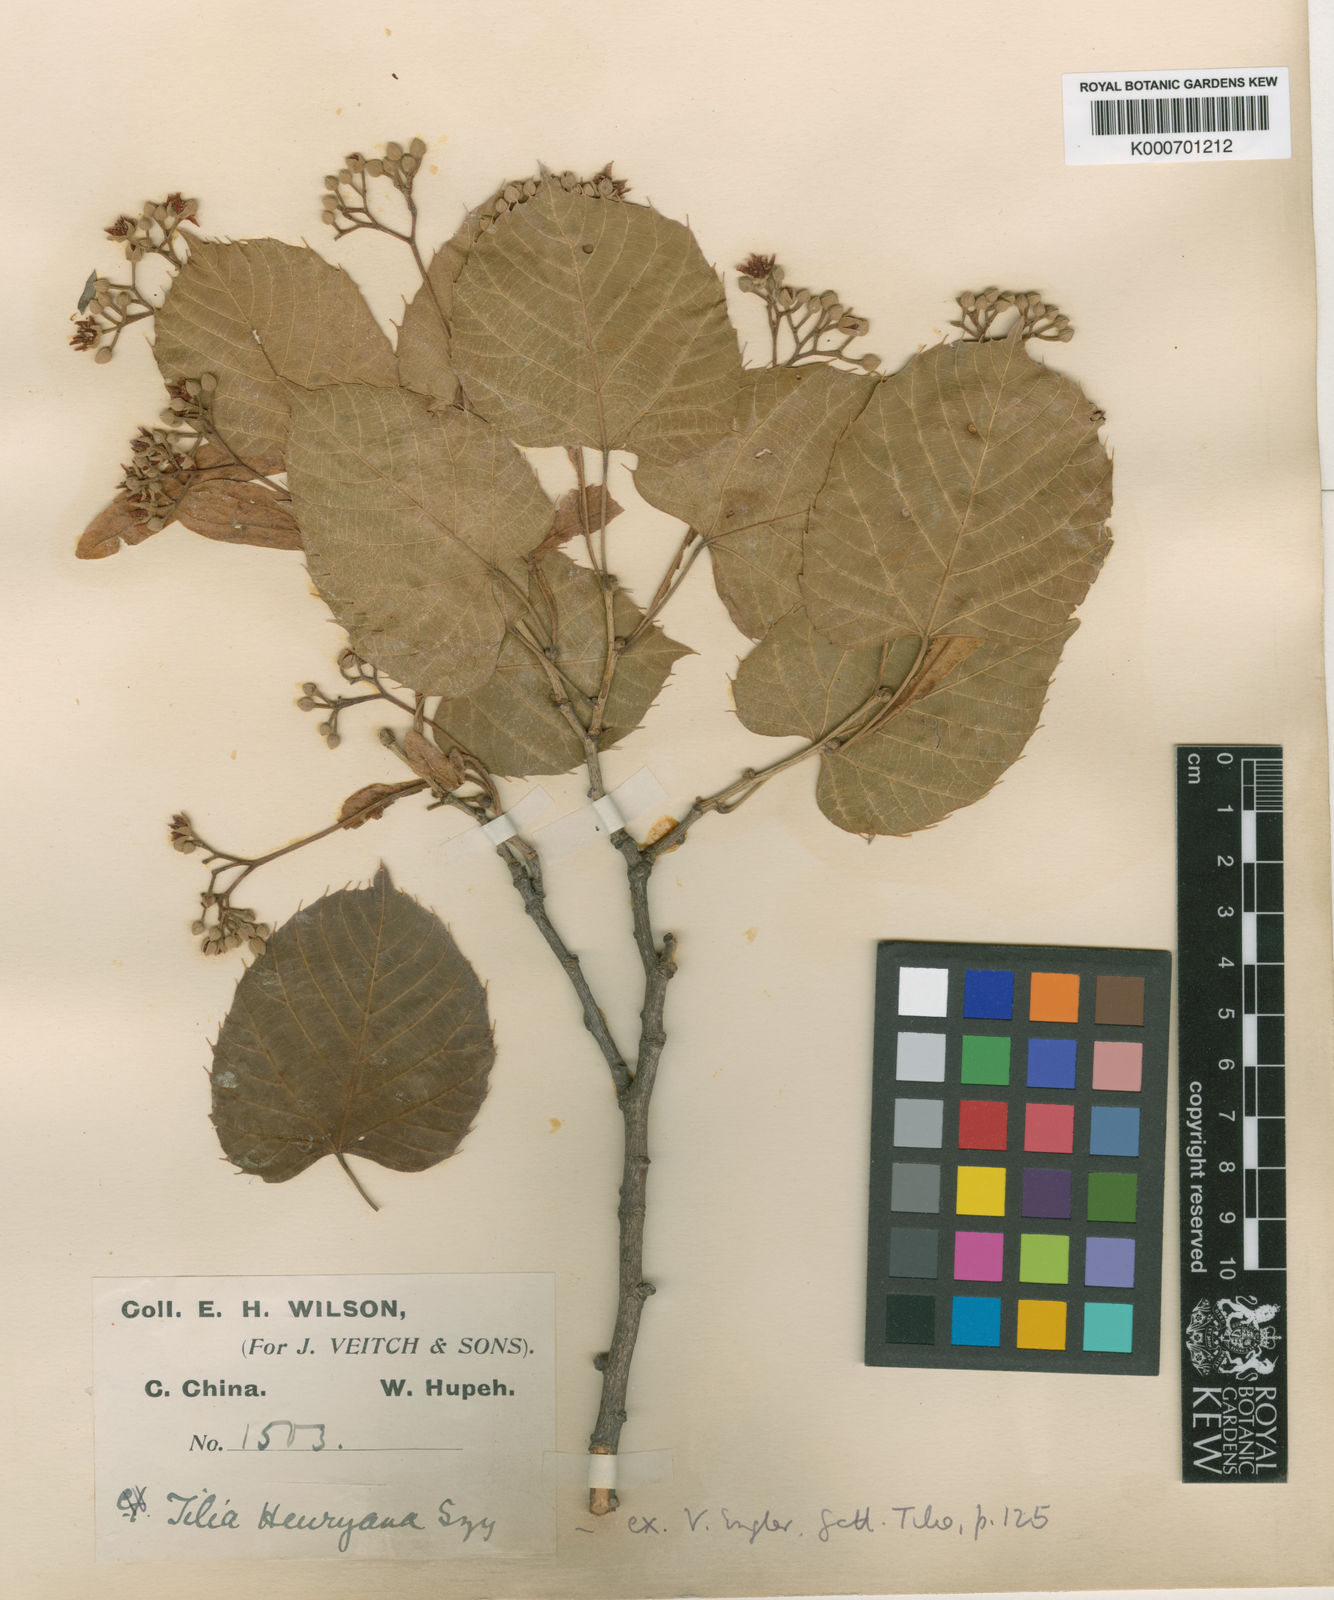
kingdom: Plantae
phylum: Tracheophyta
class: Magnoliopsida
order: Malvales
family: Malvaceae
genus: Tilia
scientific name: Tilia henryana
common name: Henry's lime
